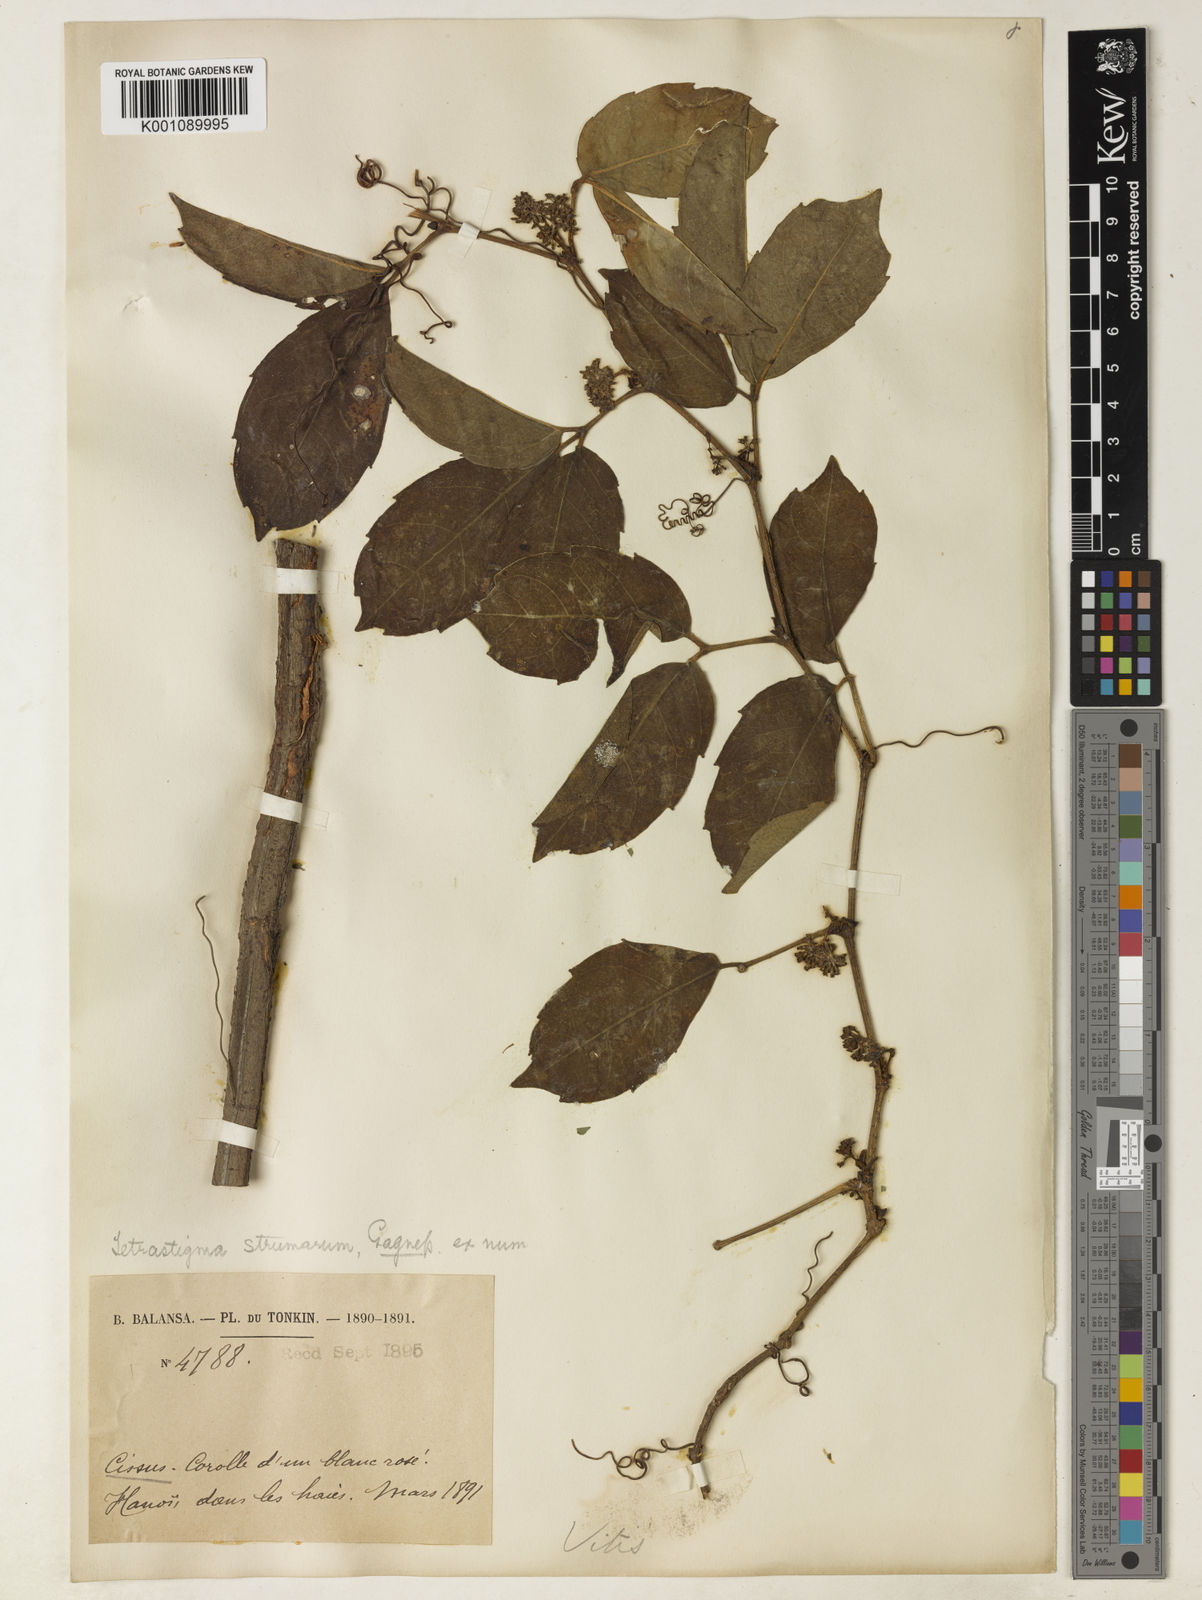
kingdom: Plantae
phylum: Tracheophyta
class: Magnoliopsida
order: Vitales
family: Vitaceae
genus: Tetrastigma
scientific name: Tetrastigma pachyphyllum
